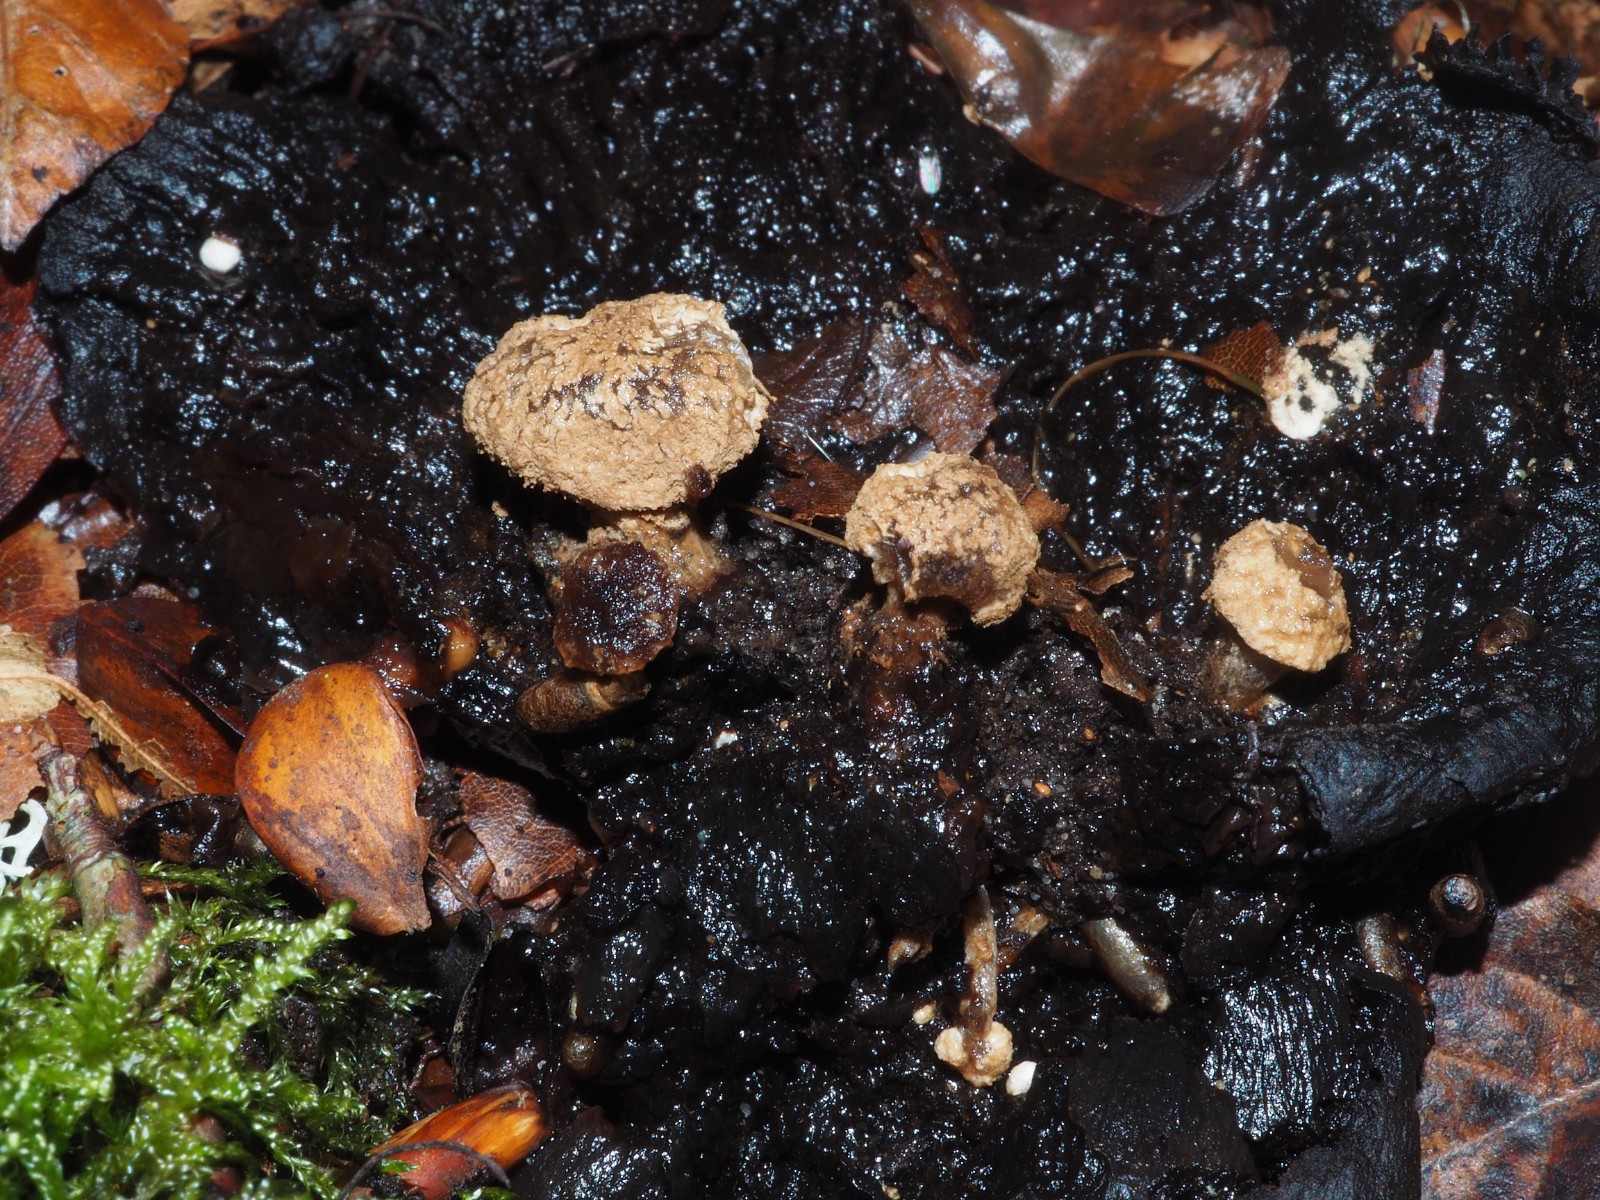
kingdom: Fungi
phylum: Basidiomycota
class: Agaricomycetes
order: Agaricales
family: Lyophyllaceae
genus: Asterophora
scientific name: Asterophora lycoperdoides
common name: brunpudret snyltehat
